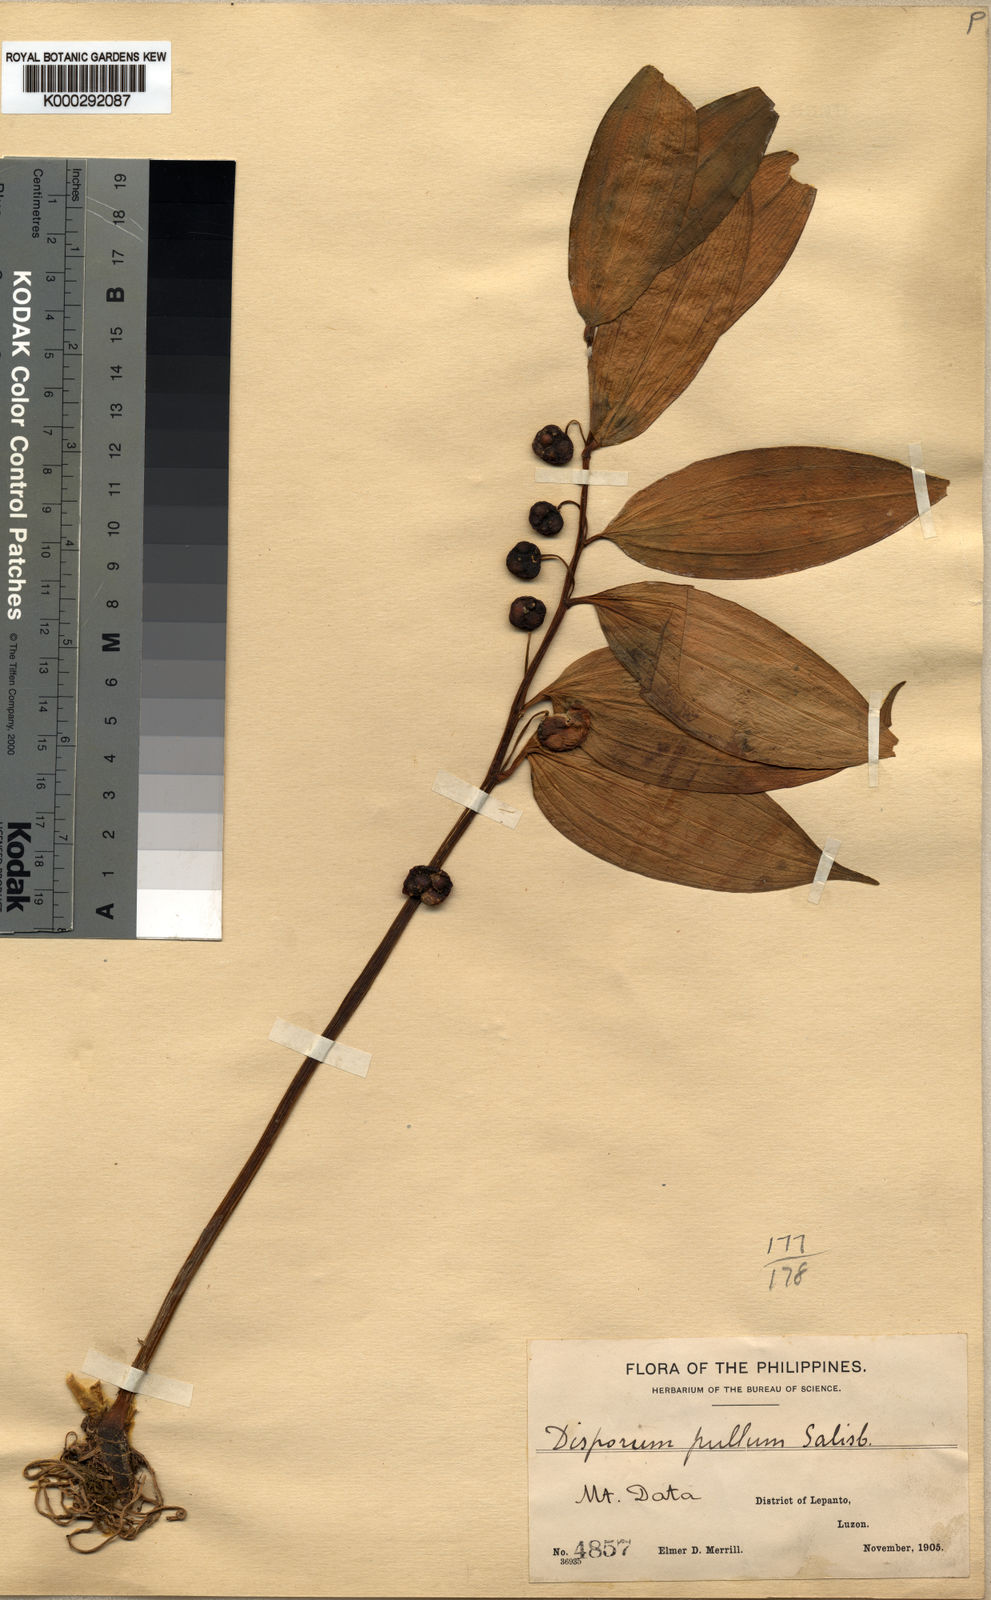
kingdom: Plantae
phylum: Tracheophyta
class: Liliopsida
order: Asparagales
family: Asparagaceae
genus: Disporopsis
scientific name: Disporopsis luzoniensis
